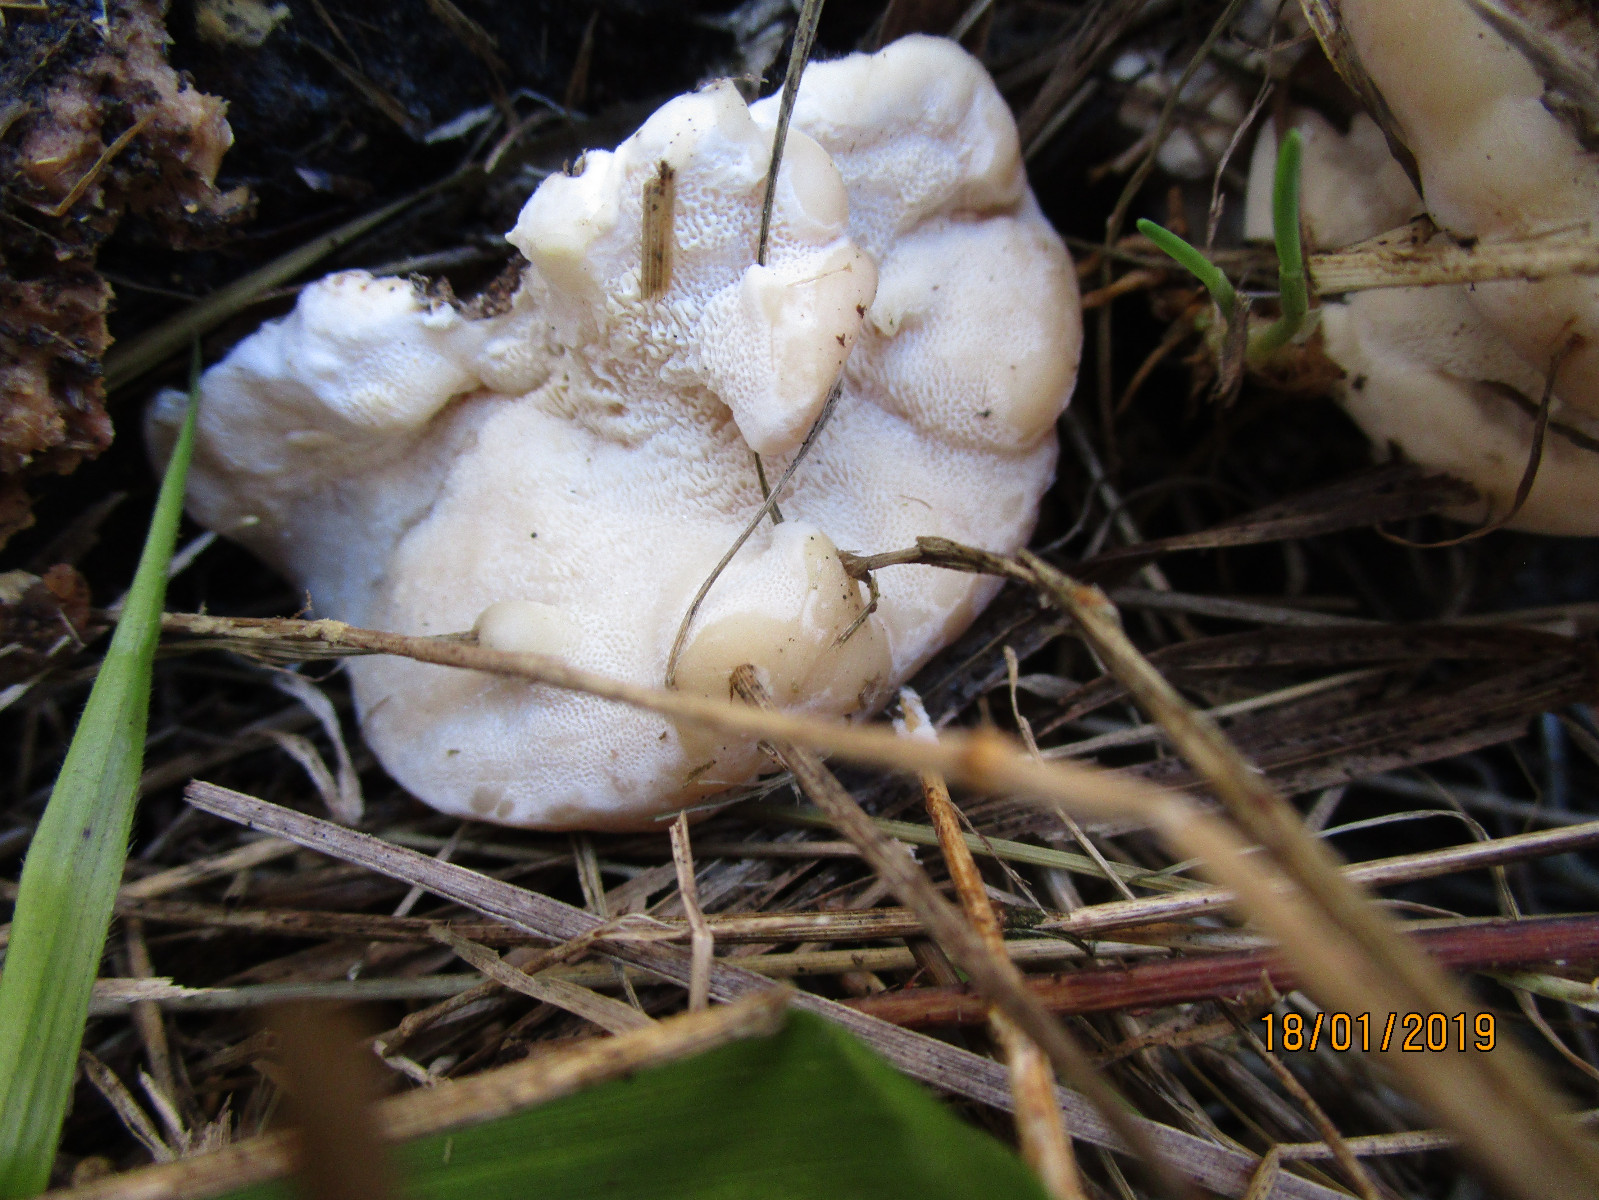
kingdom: Fungi
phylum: Basidiomycota
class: Agaricomycetes
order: Polyporales
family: Polyporaceae
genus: Trametes
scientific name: Trametes gibbosa
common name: puklet læderporesvamp
